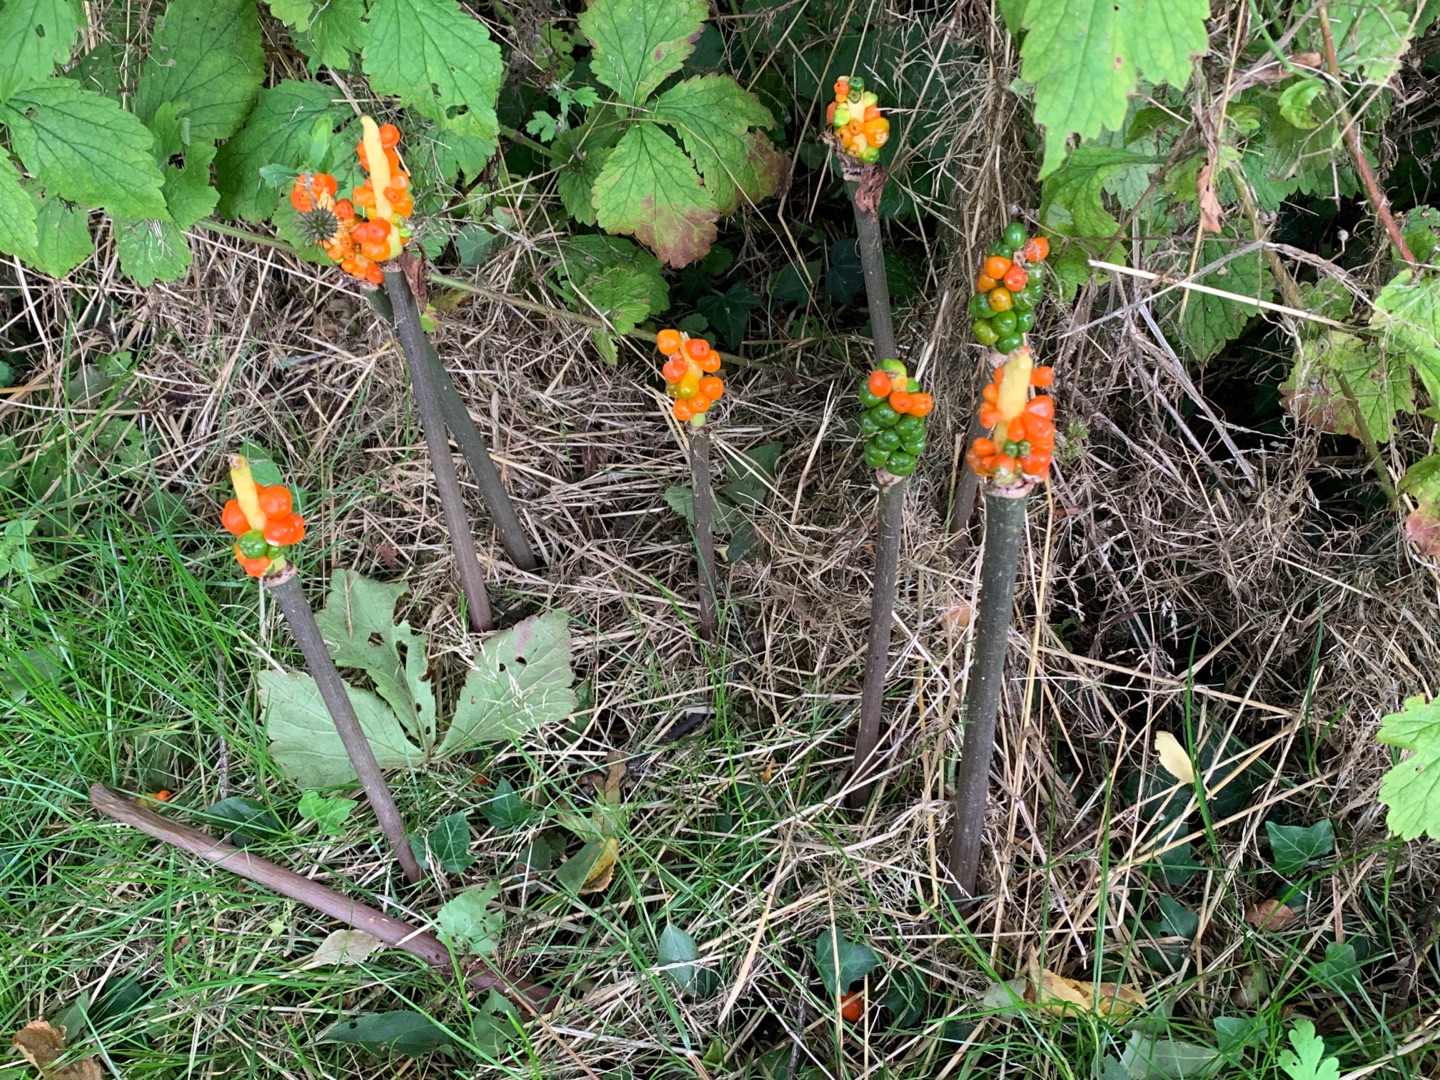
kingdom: Plantae
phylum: Tracheophyta
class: Liliopsida
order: Alismatales
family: Araceae
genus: Arum
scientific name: Arum
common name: Arumslægten
